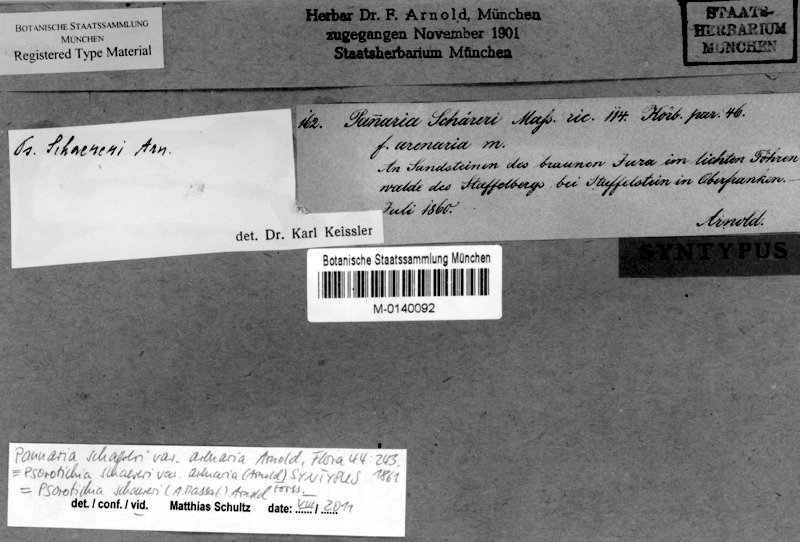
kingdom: Fungi
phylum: Ascomycota
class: Lichinomycetes
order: Lichinales
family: Lichinaceae
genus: Psorotichia
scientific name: Psorotichia schaereri
